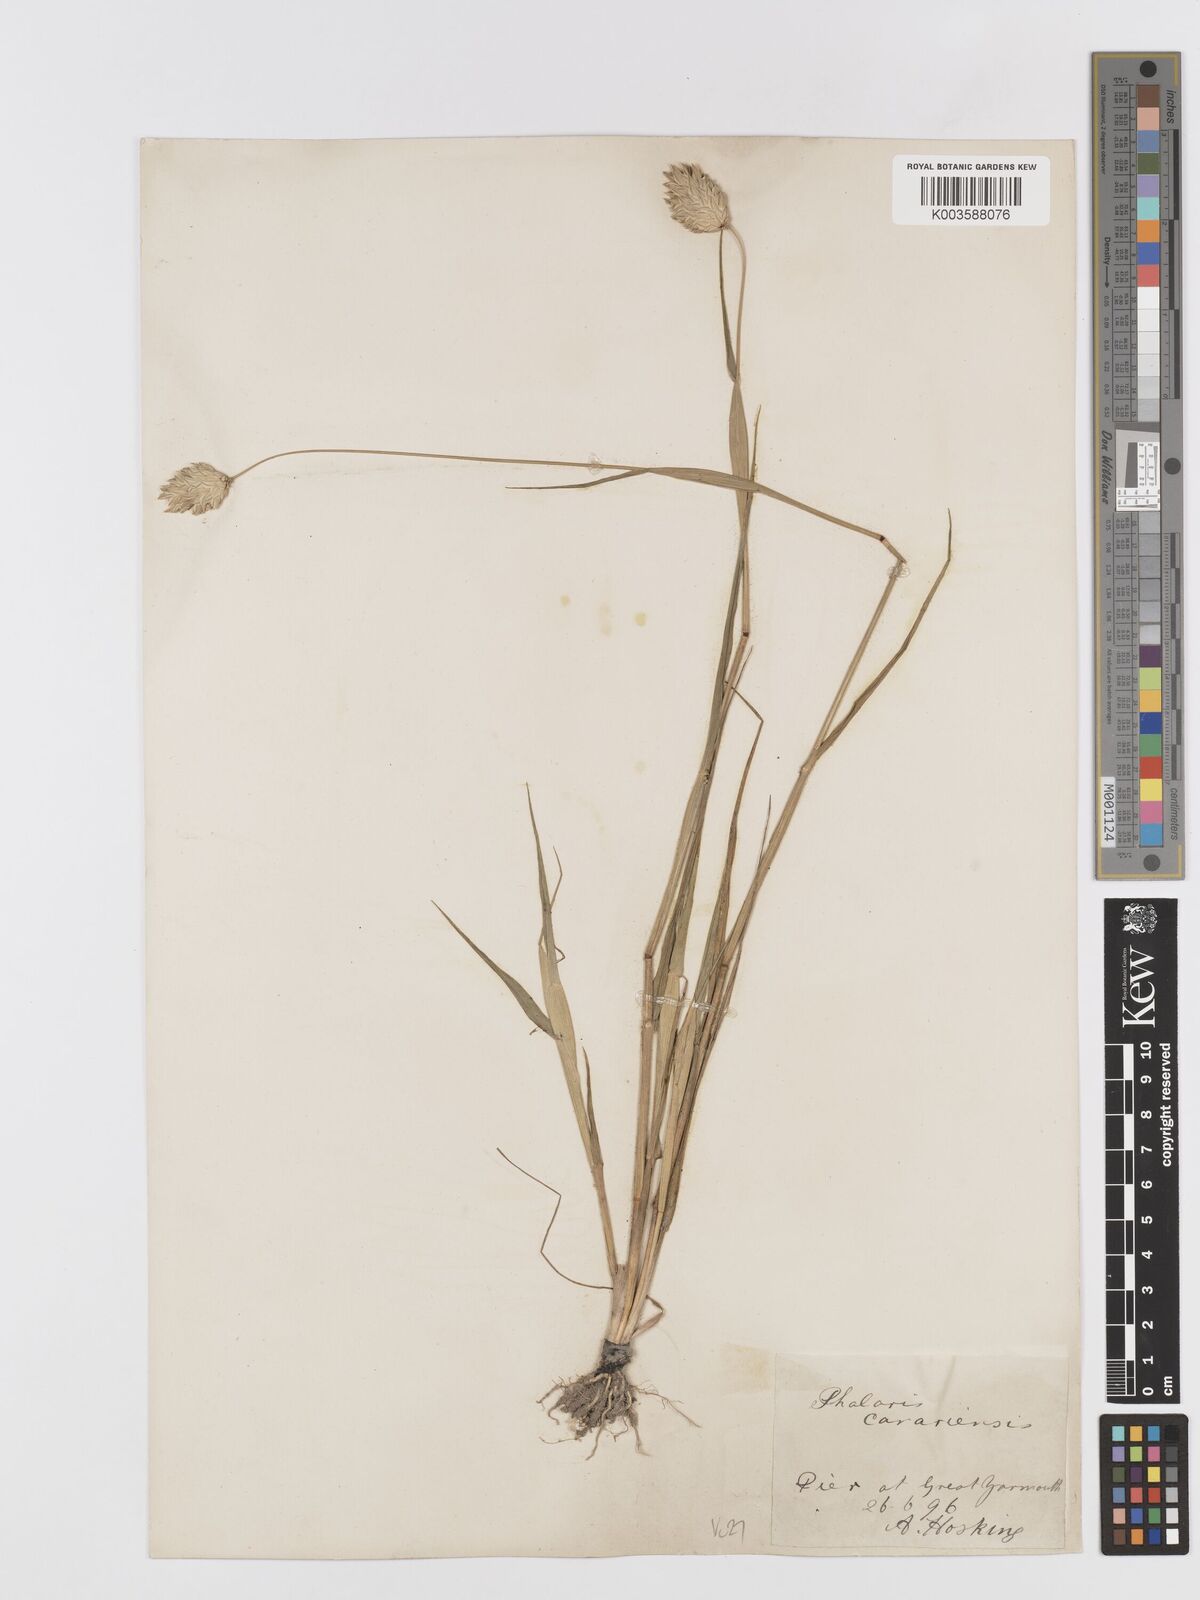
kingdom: Plantae
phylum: Tracheophyta
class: Liliopsida
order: Poales
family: Poaceae
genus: Phalaris
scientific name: Phalaris canariensis
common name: Annual canarygrass
